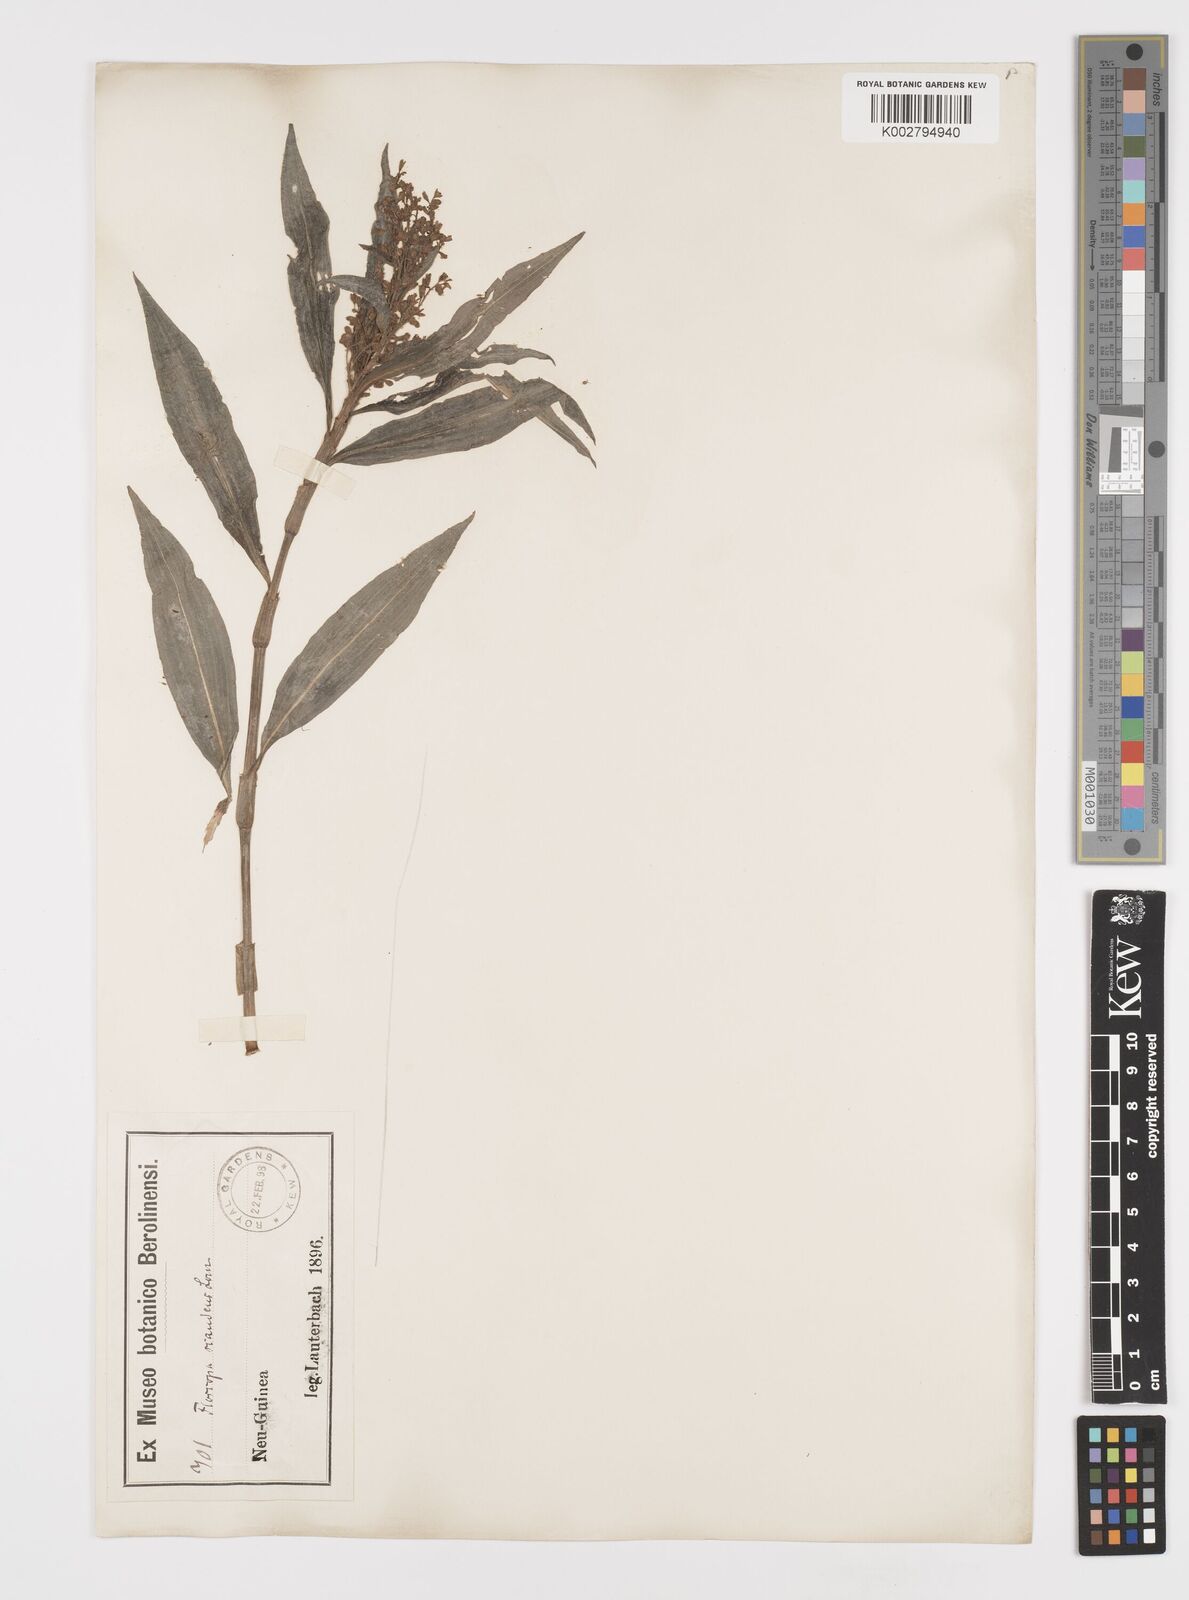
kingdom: Plantae
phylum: Tracheophyta
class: Liliopsida
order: Commelinales
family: Commelinaceae
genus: Floscopa
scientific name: Floscopa scandens
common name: Climbing flower cup
